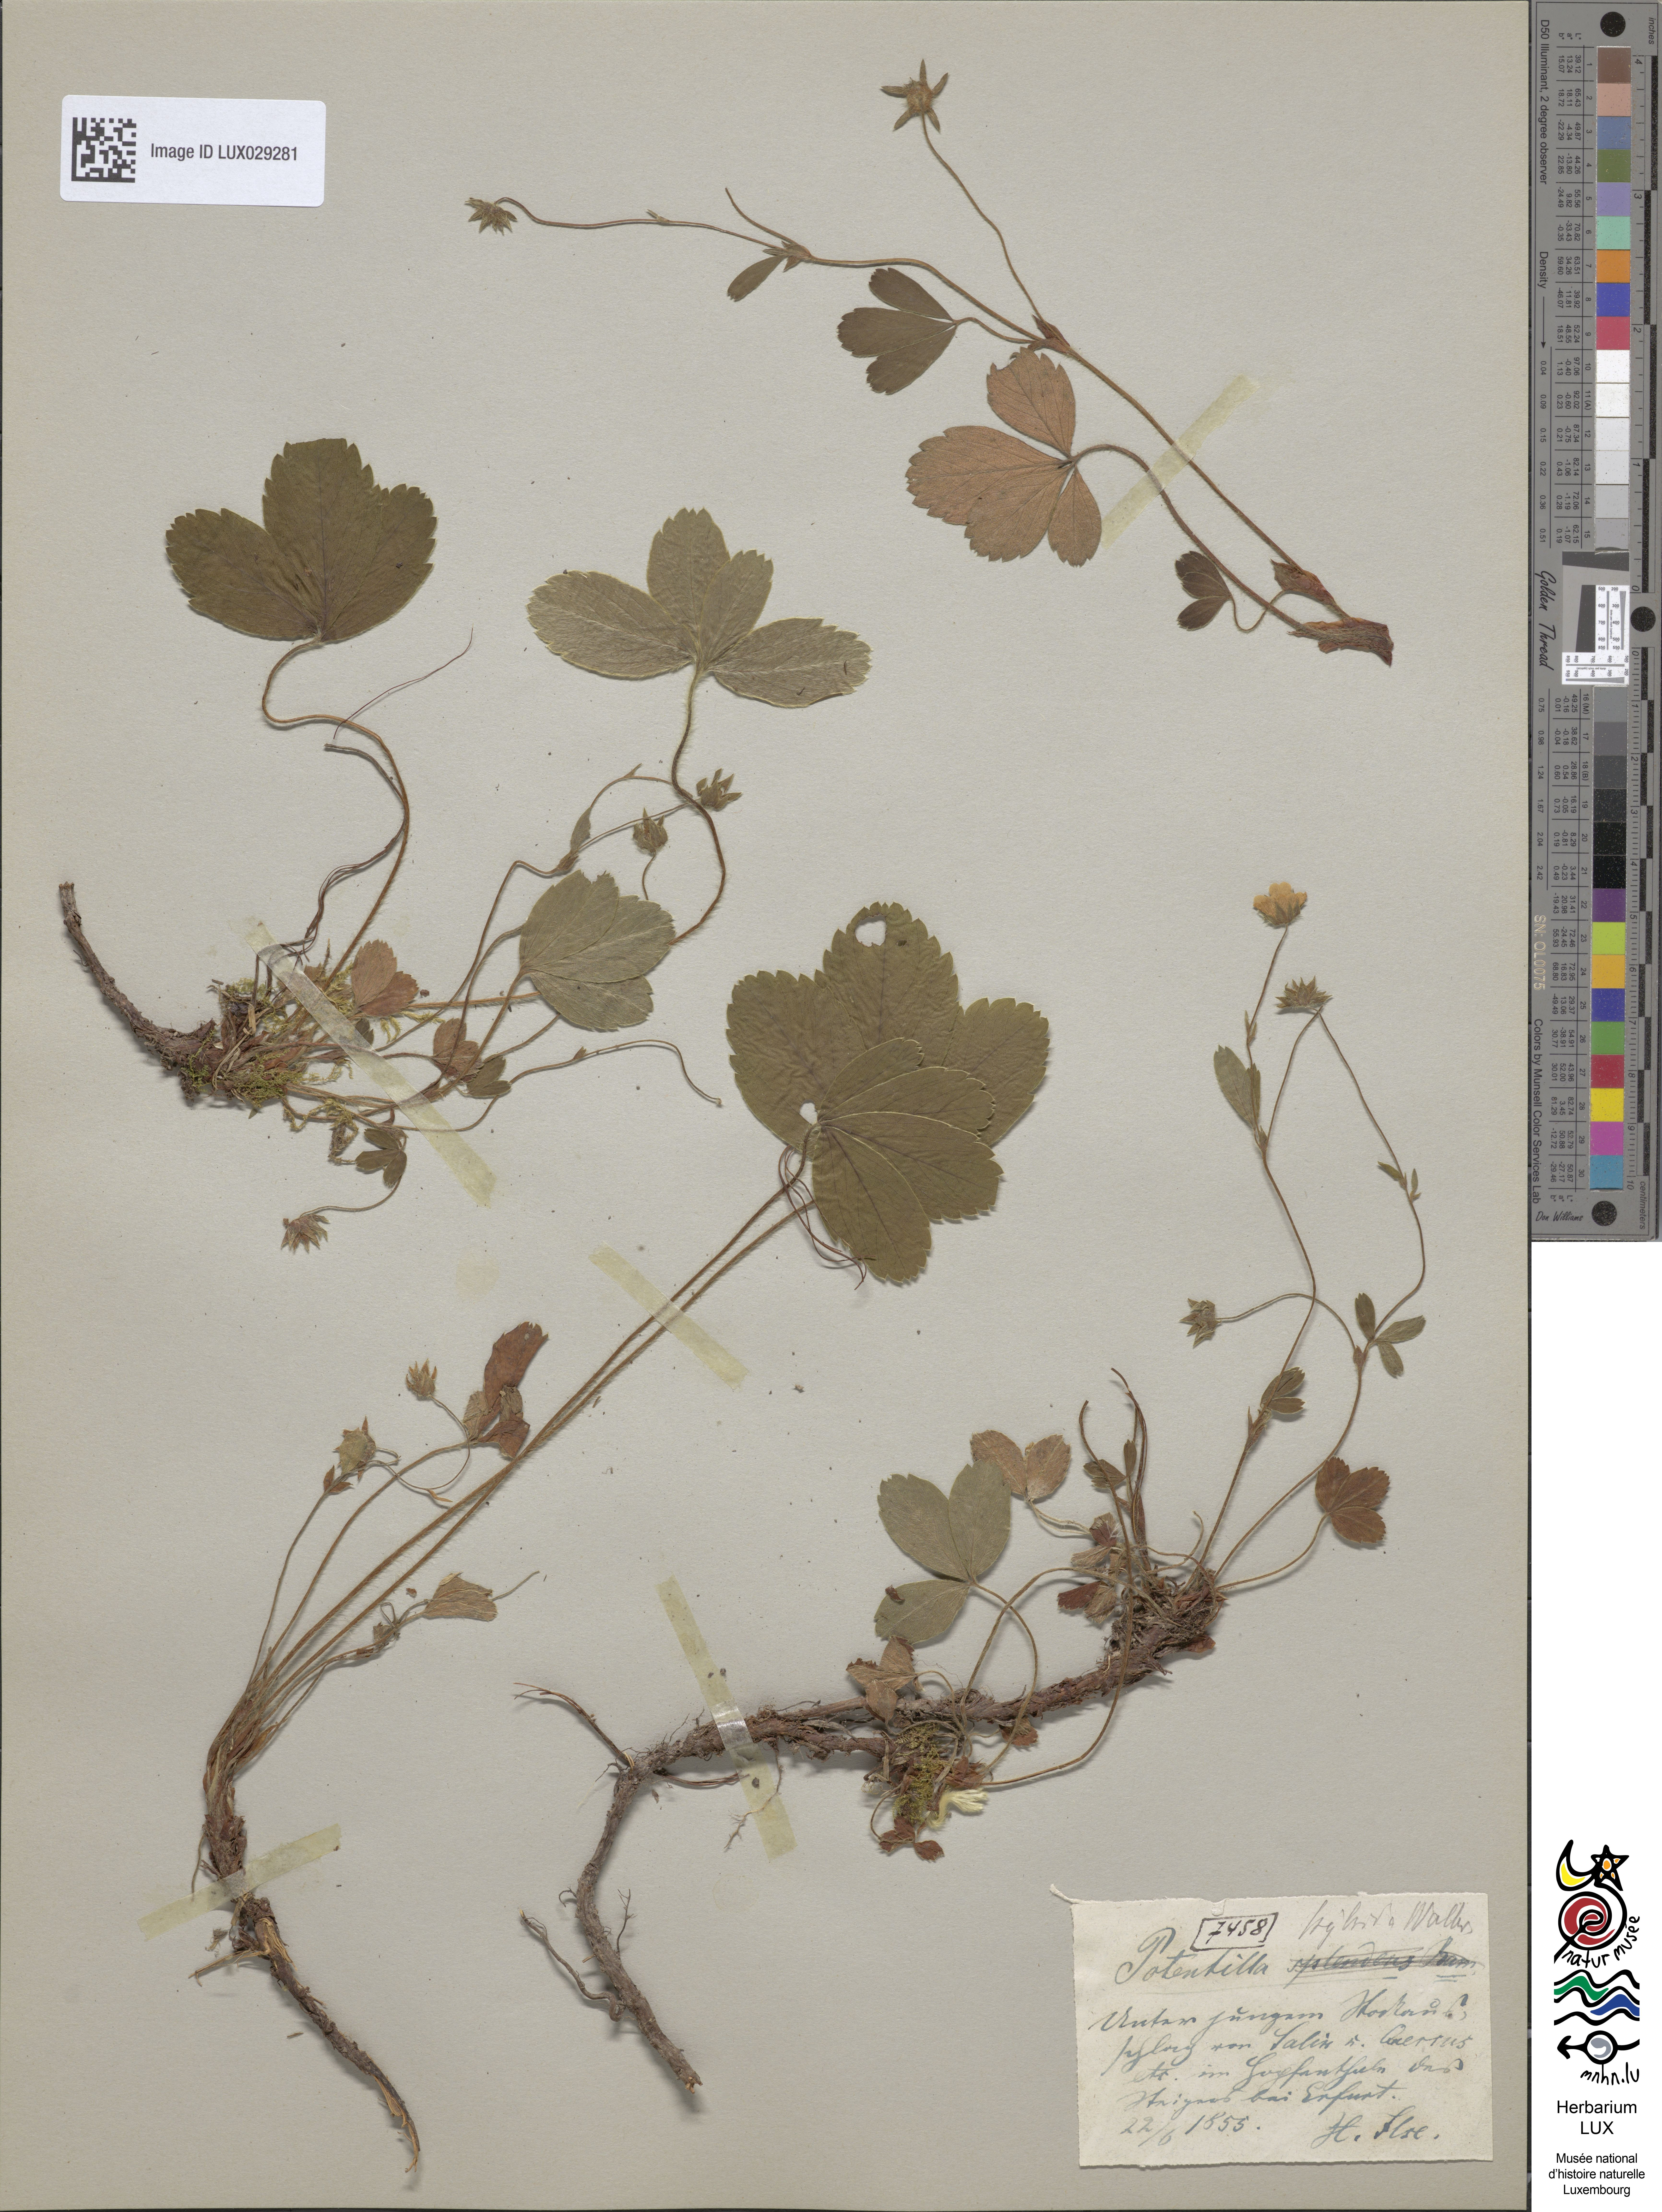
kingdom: Plantae
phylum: Tracheophyta
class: Magnoliopsida
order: Rosales
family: Rosaceae
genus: Potentilla
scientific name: Potentilla splendens
